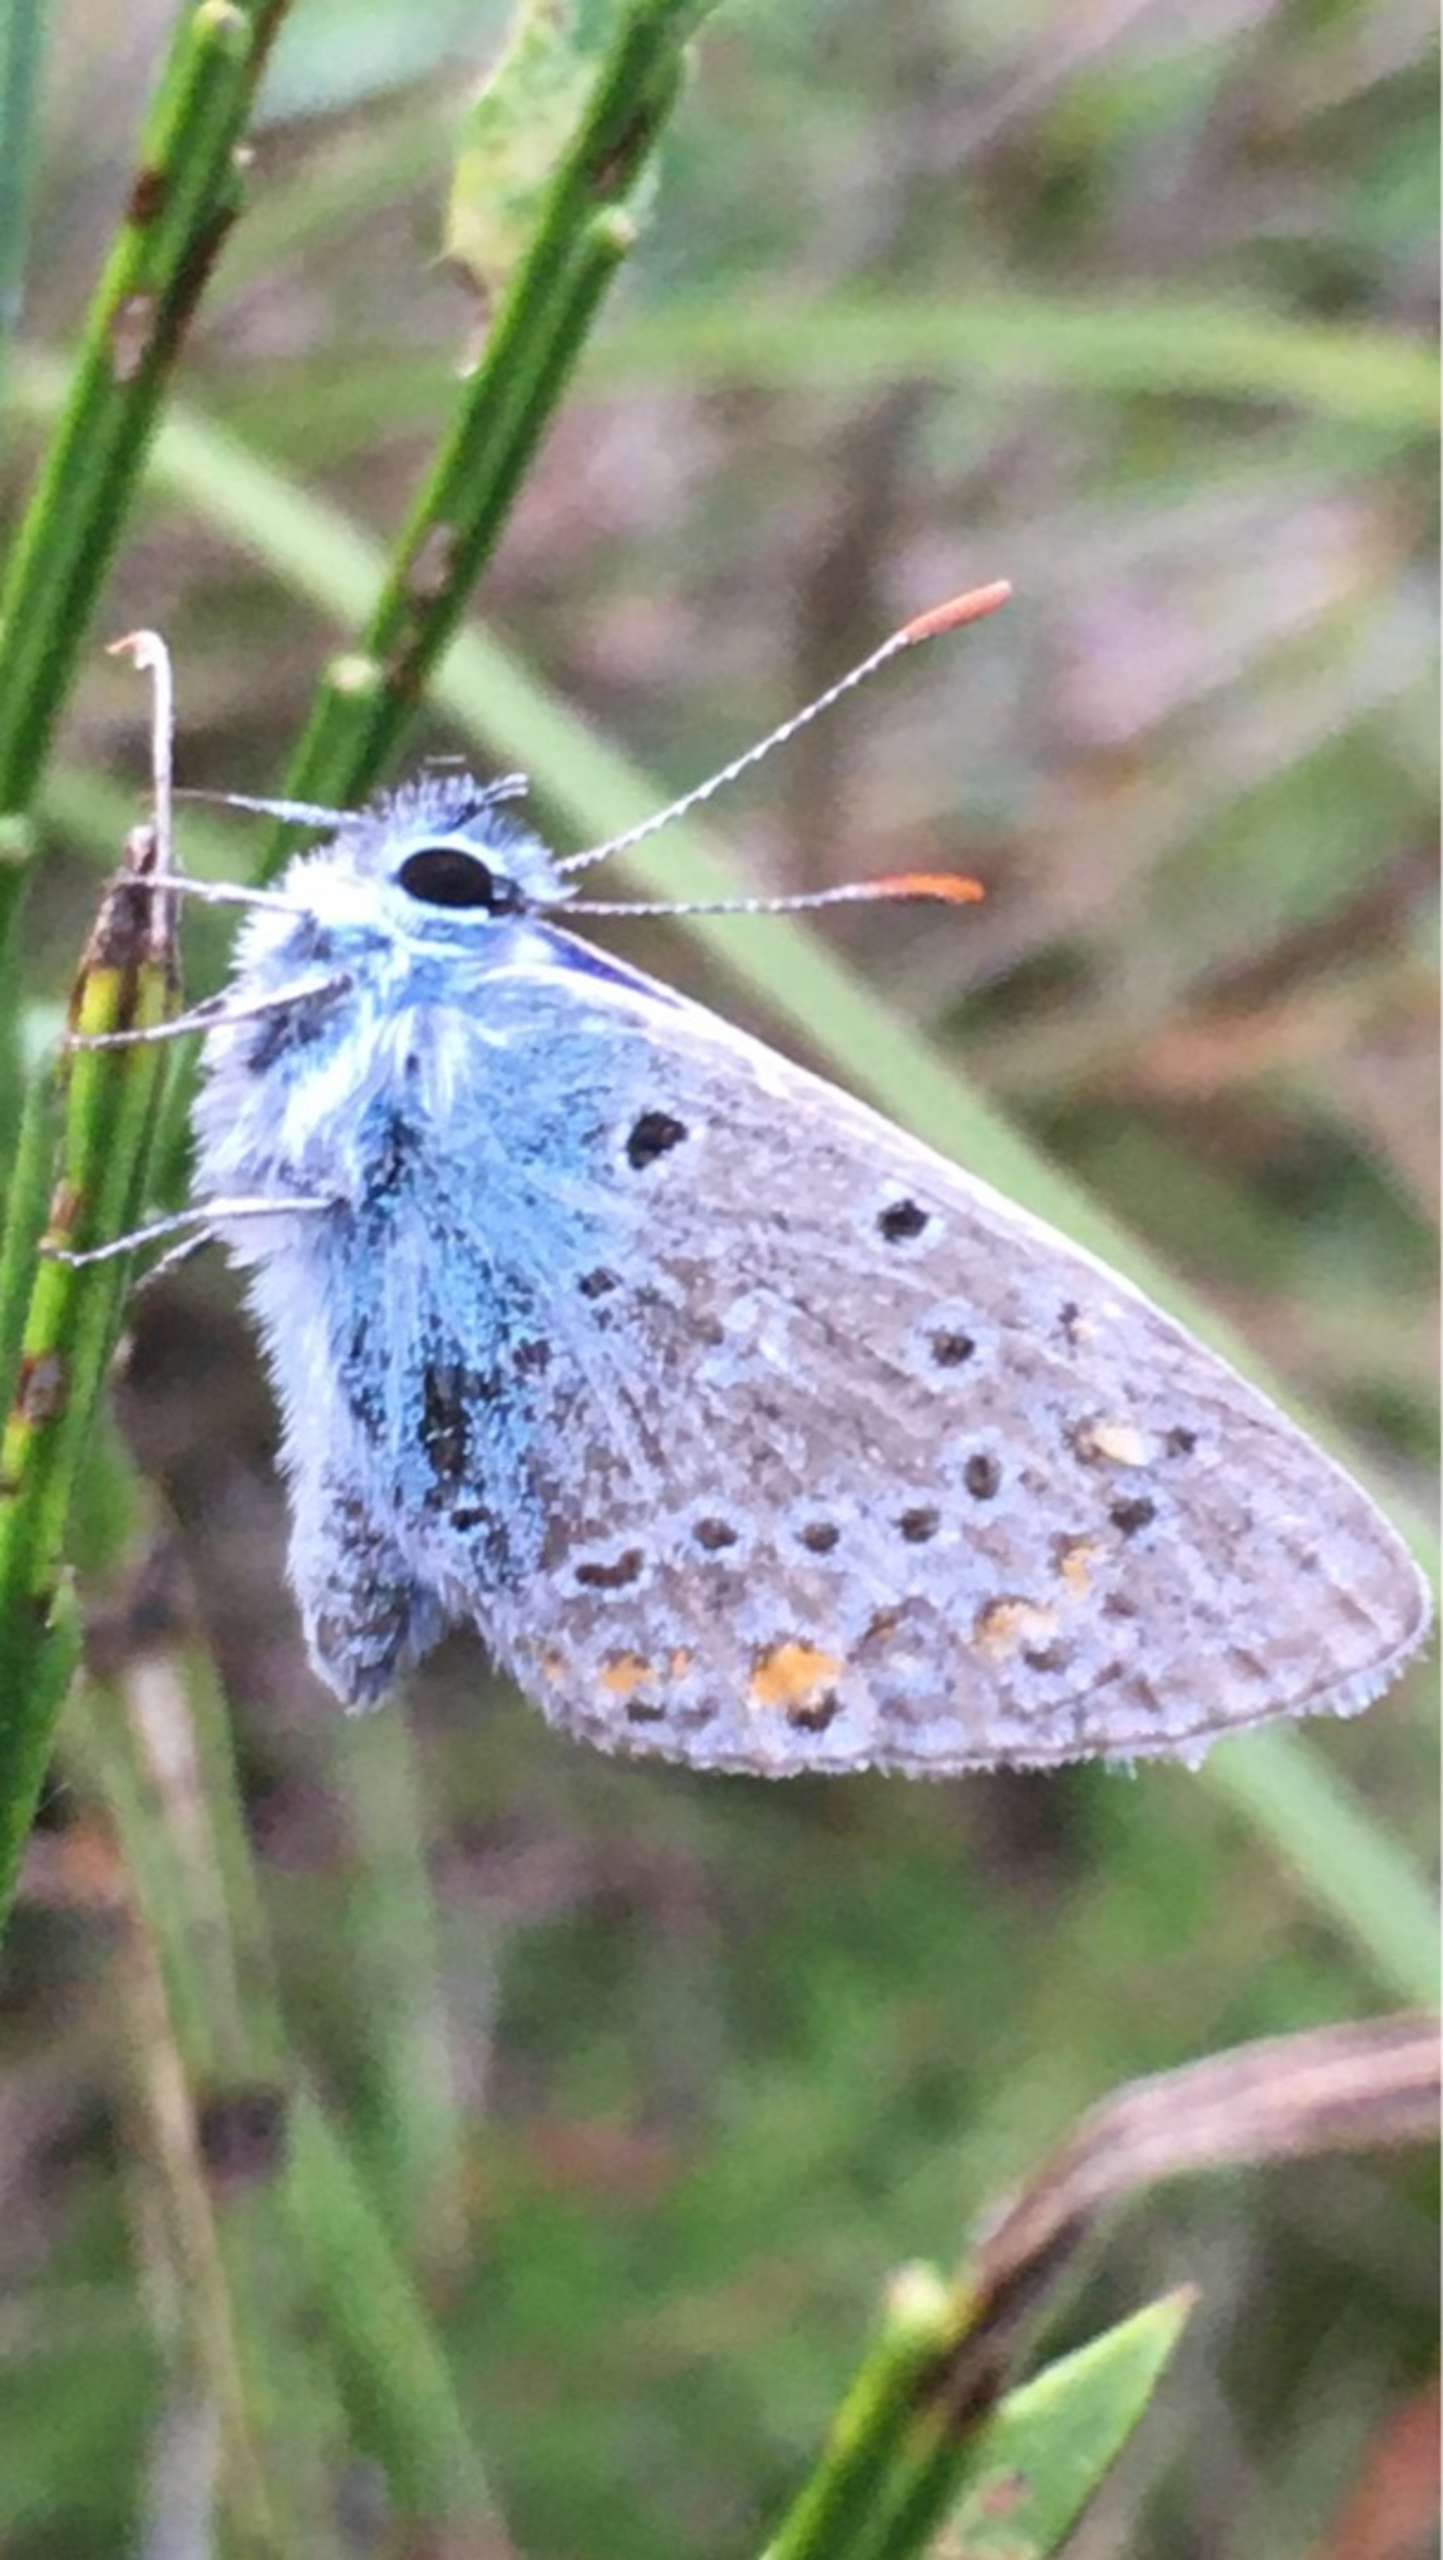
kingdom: Animalia
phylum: Arthropoda
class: Insecta
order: Lepidoptera
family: Lycaenidae
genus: Polyommatus
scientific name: Polyommatus icarus
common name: Almindelig blåfugl
